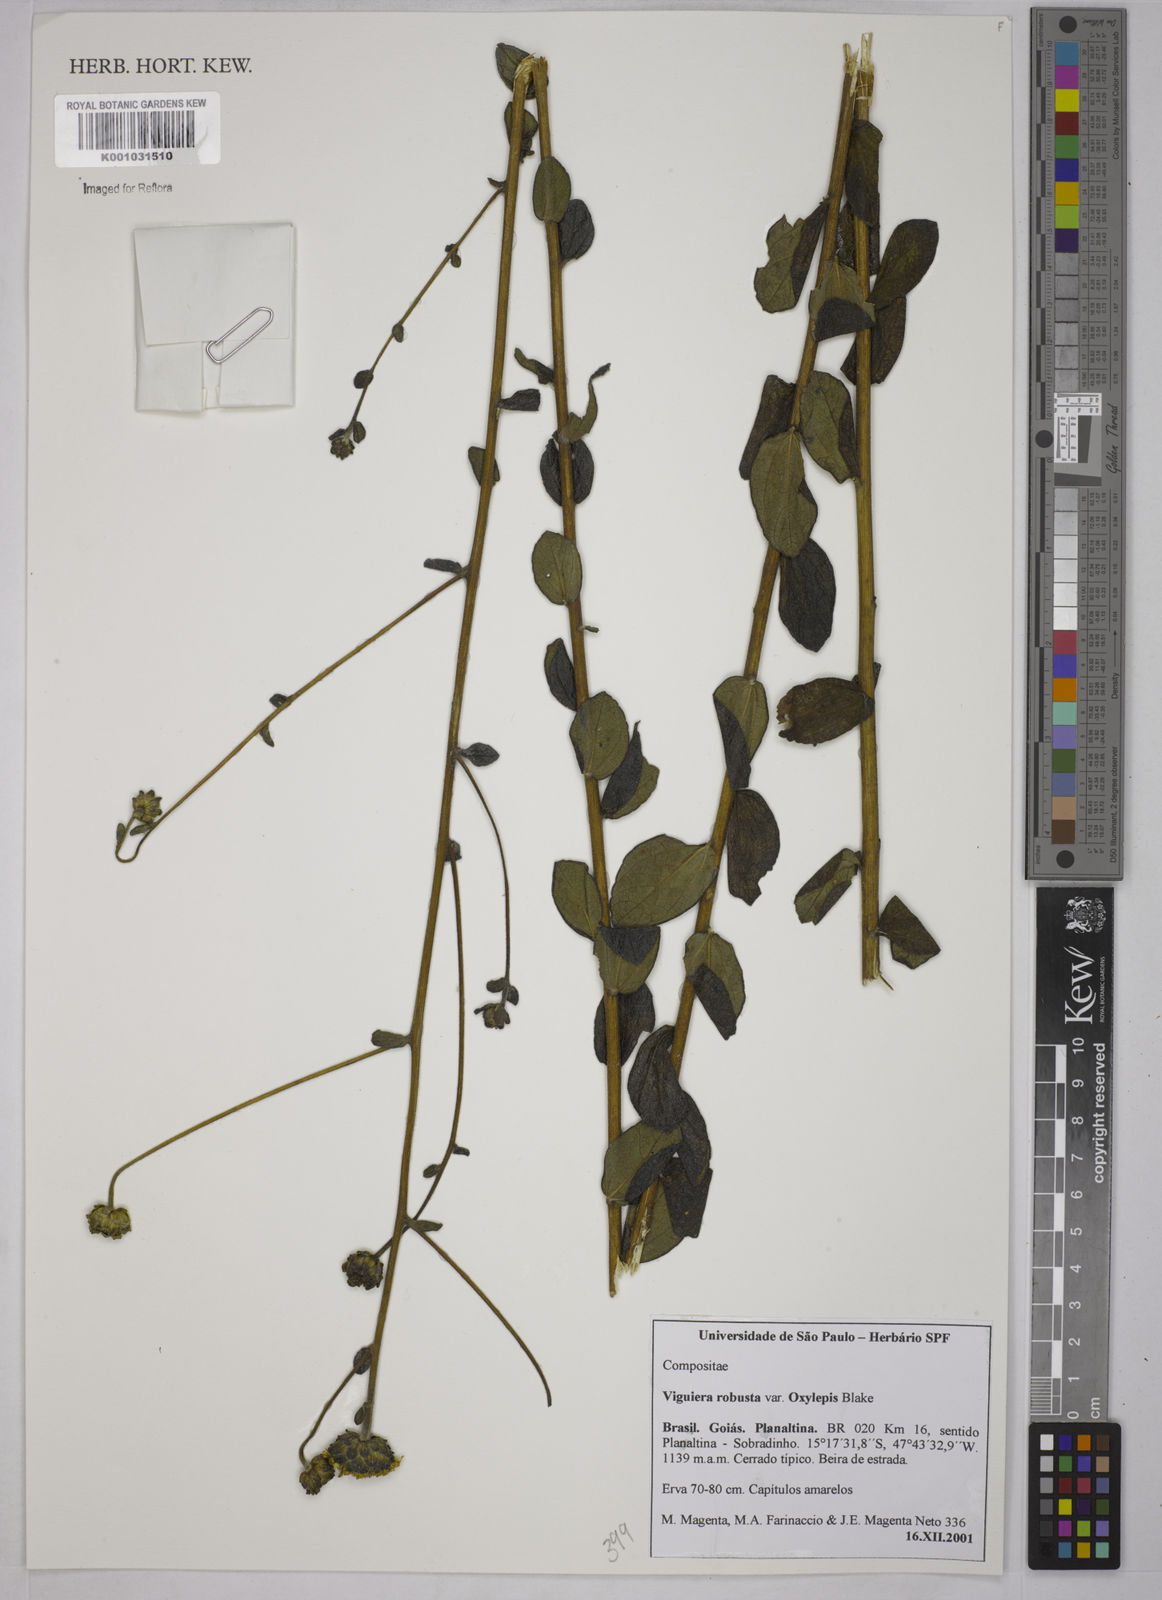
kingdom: Plantae
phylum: Tracheophyta
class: Magnoliopsida
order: Asterales
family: Asteraceae
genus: Aldama
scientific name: Aldama robusta
